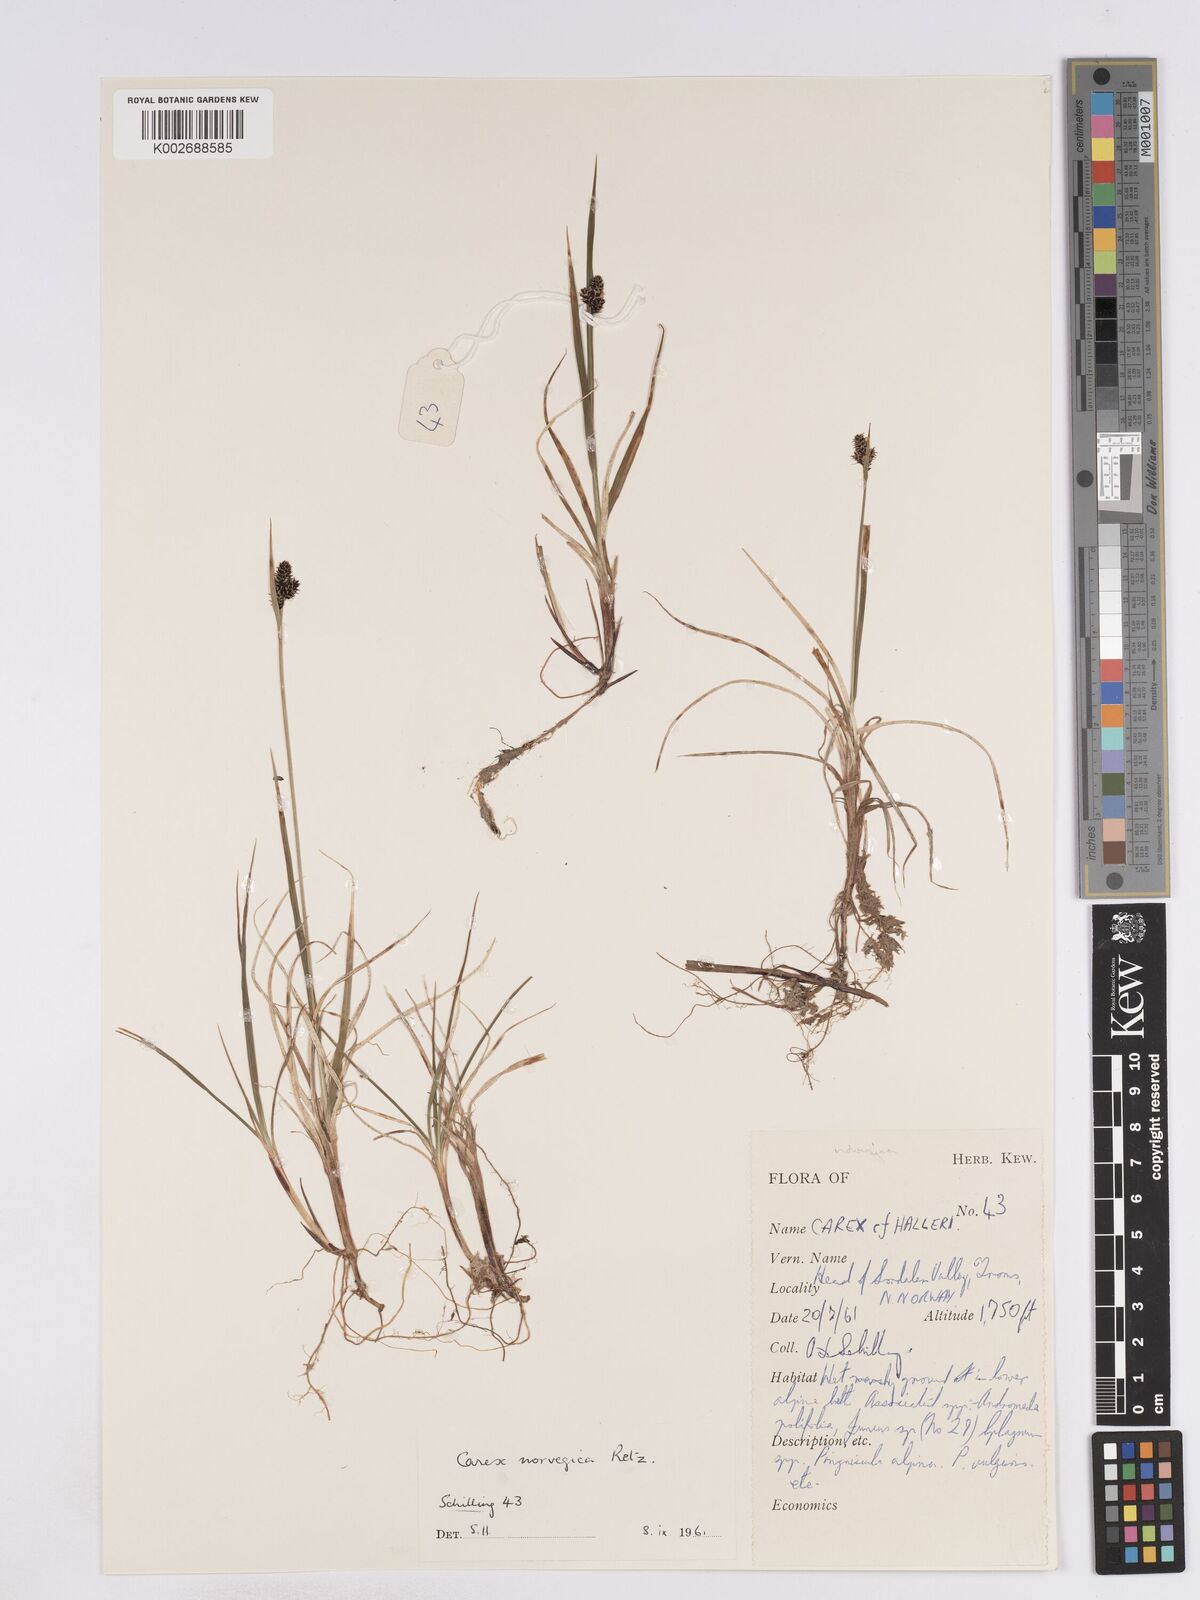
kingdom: Plantae
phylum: Tracheophyta
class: Liliopsida
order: Poales
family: Cyperaceae
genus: Carex
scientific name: Carex norvegica
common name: Close-headed alpine-sedge
